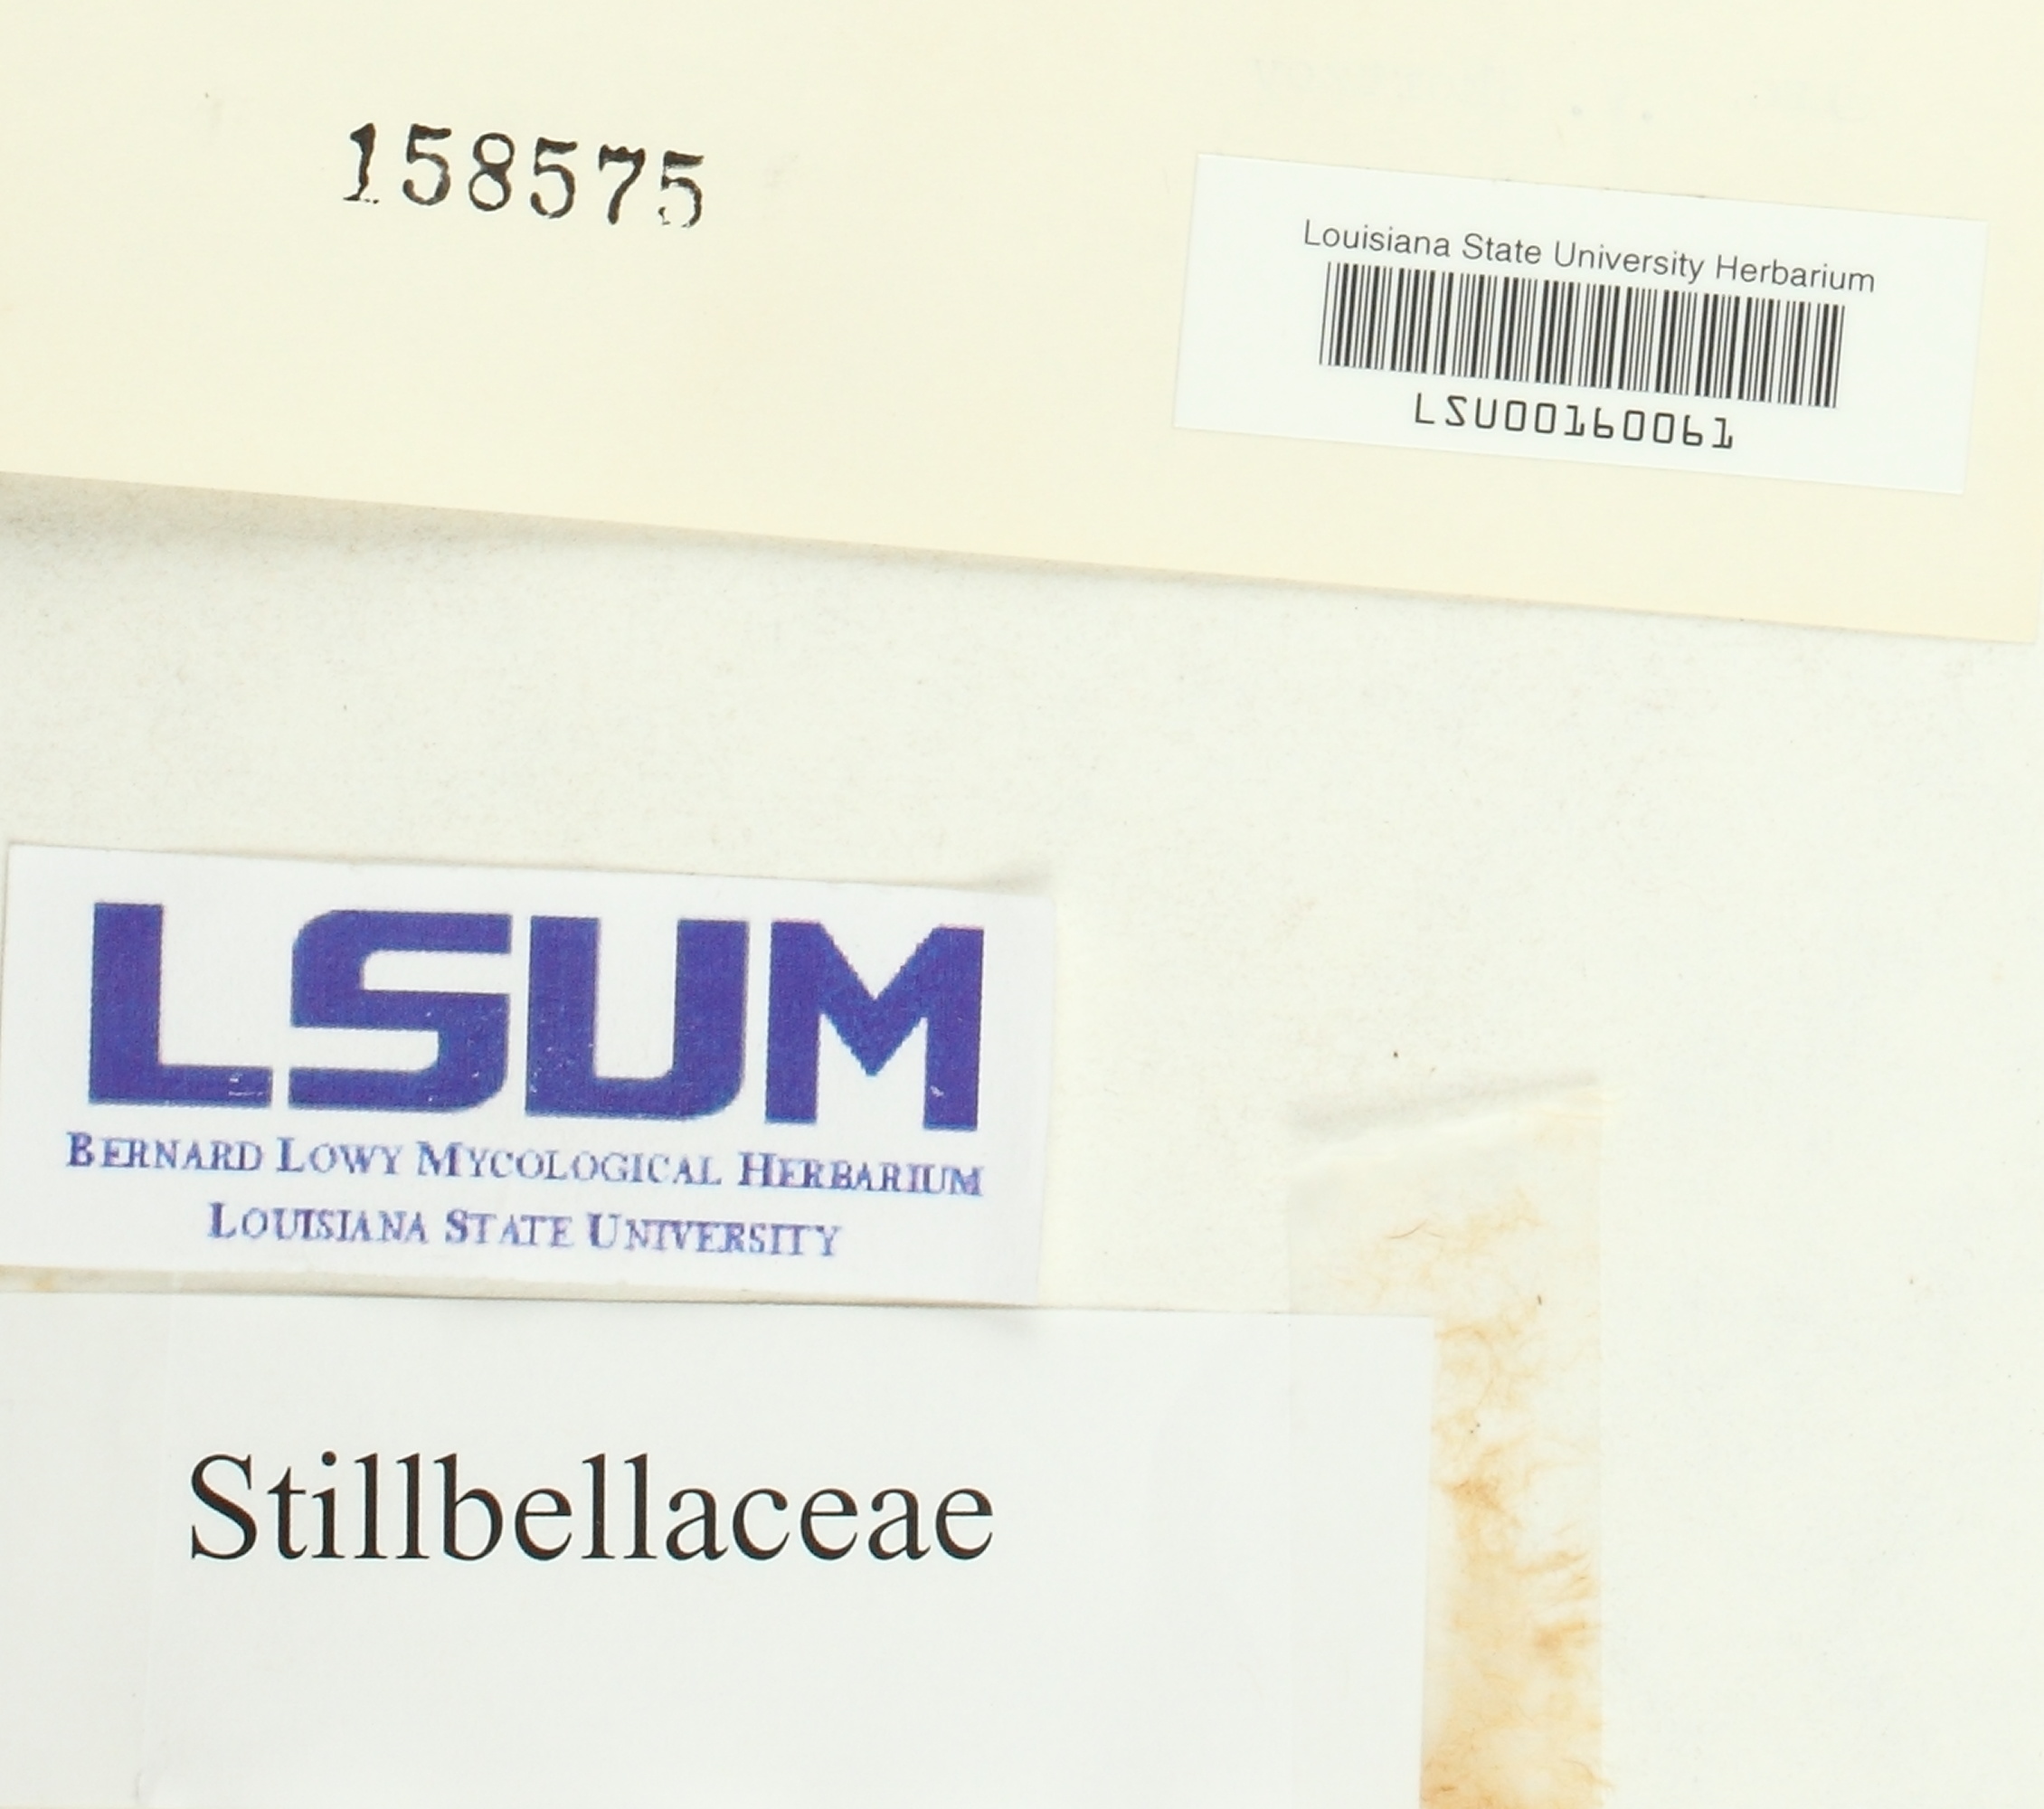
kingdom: Fungi
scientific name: Fungi
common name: Fungi
